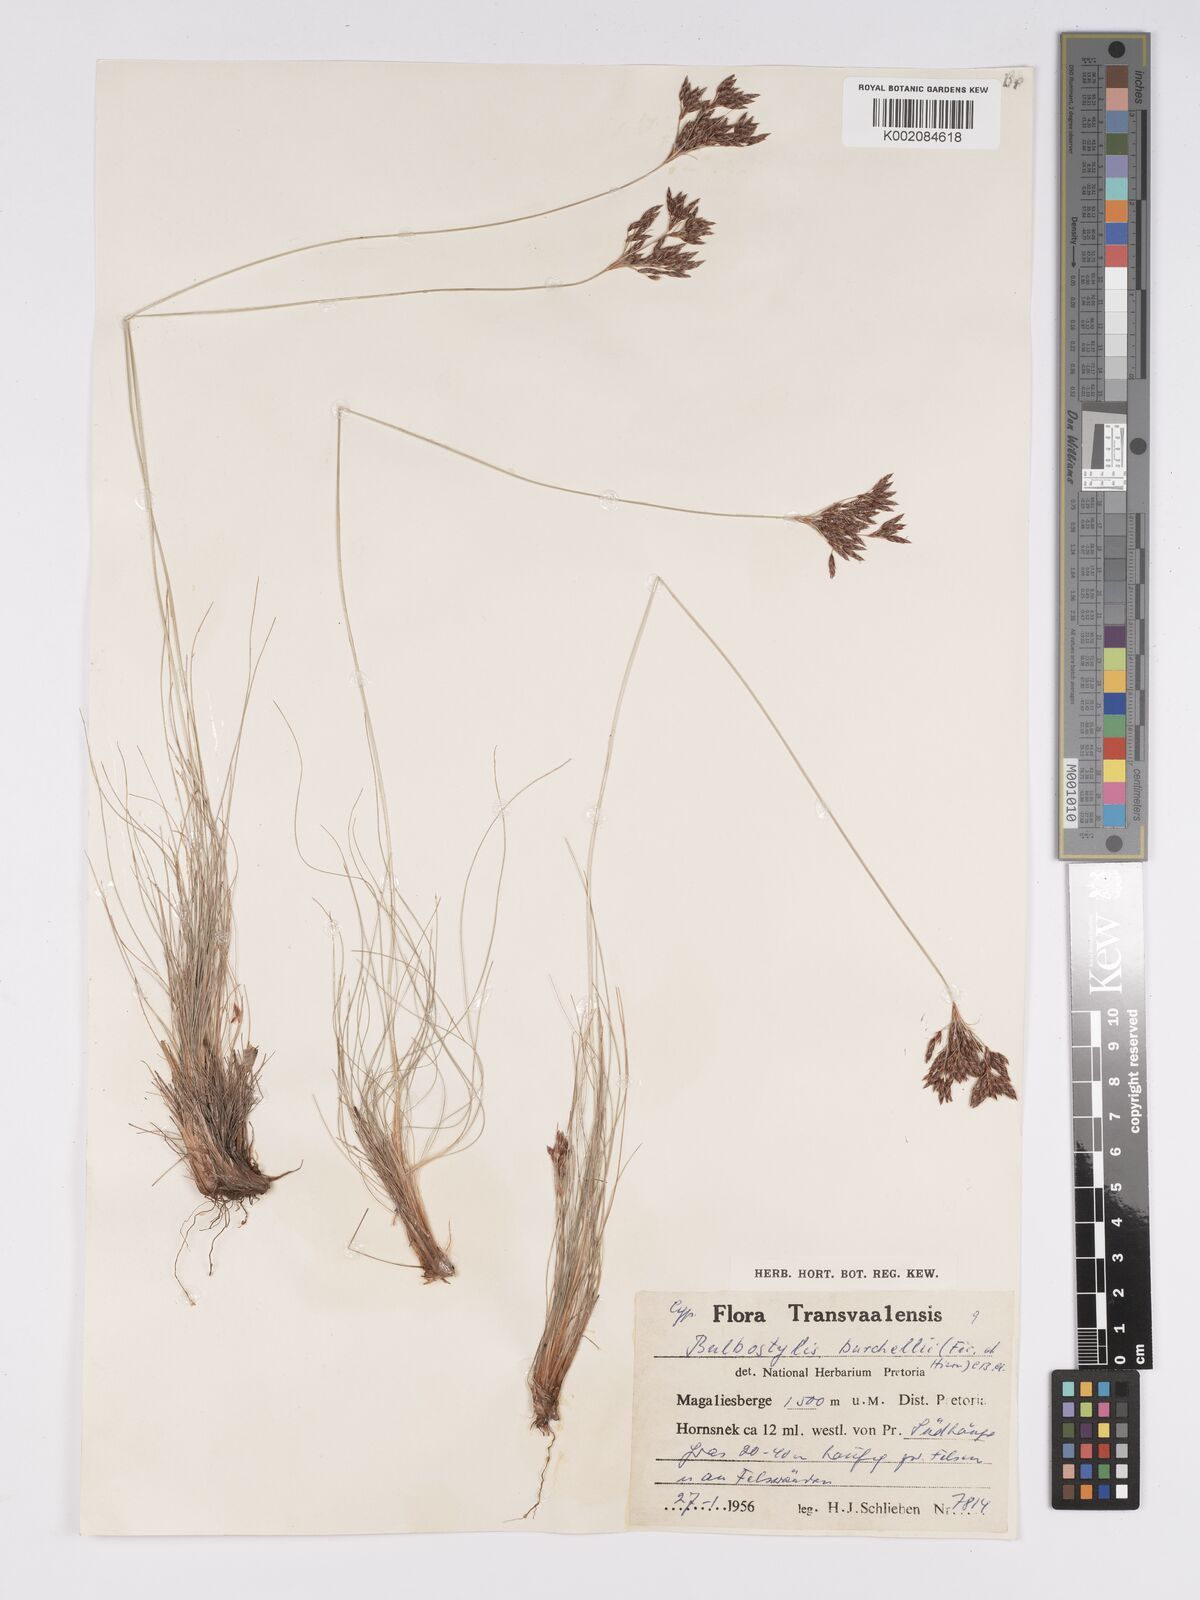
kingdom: Plantae
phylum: Tracheophyta
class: Liliopsida
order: Poales
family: Cyperaceae
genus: Bulbostylis
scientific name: Bulbostylis burchellii
